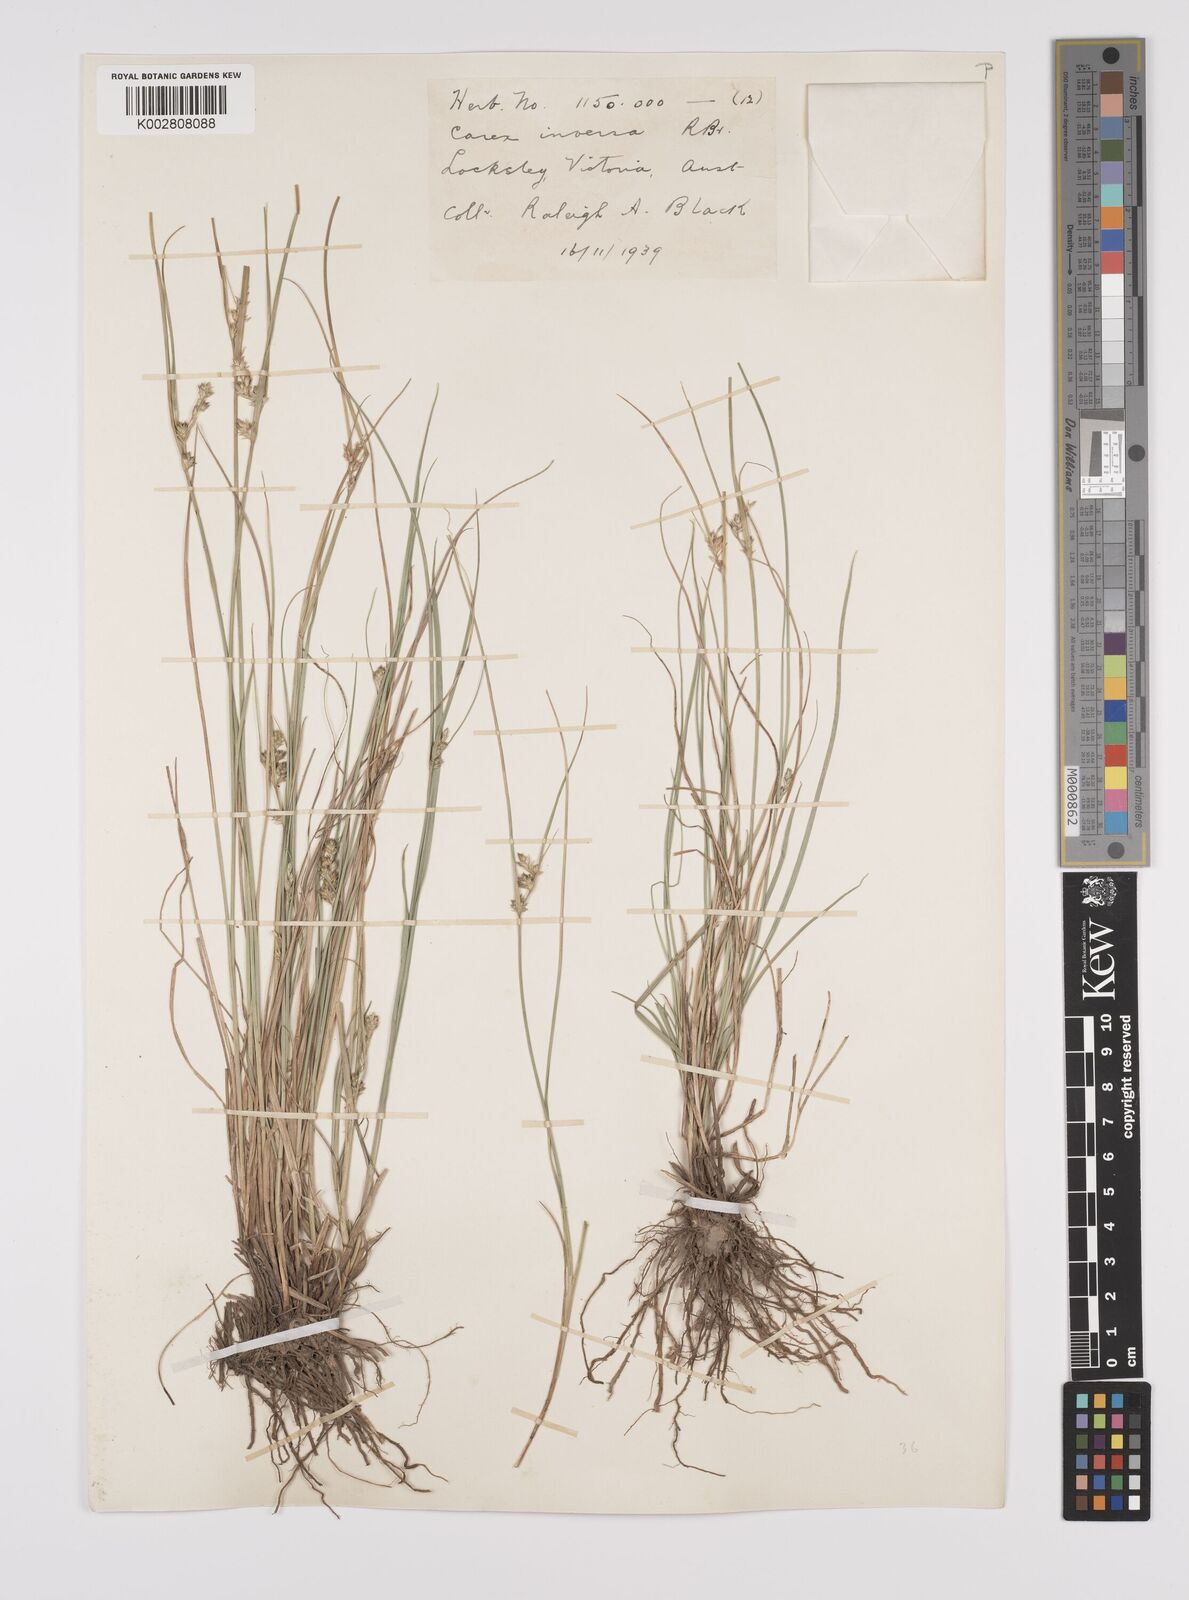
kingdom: Plantae
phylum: Tracheophyta
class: Liliopsida
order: Poales
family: Cyperaceae
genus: Carex
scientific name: Carex inversa
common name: Knob sedge
